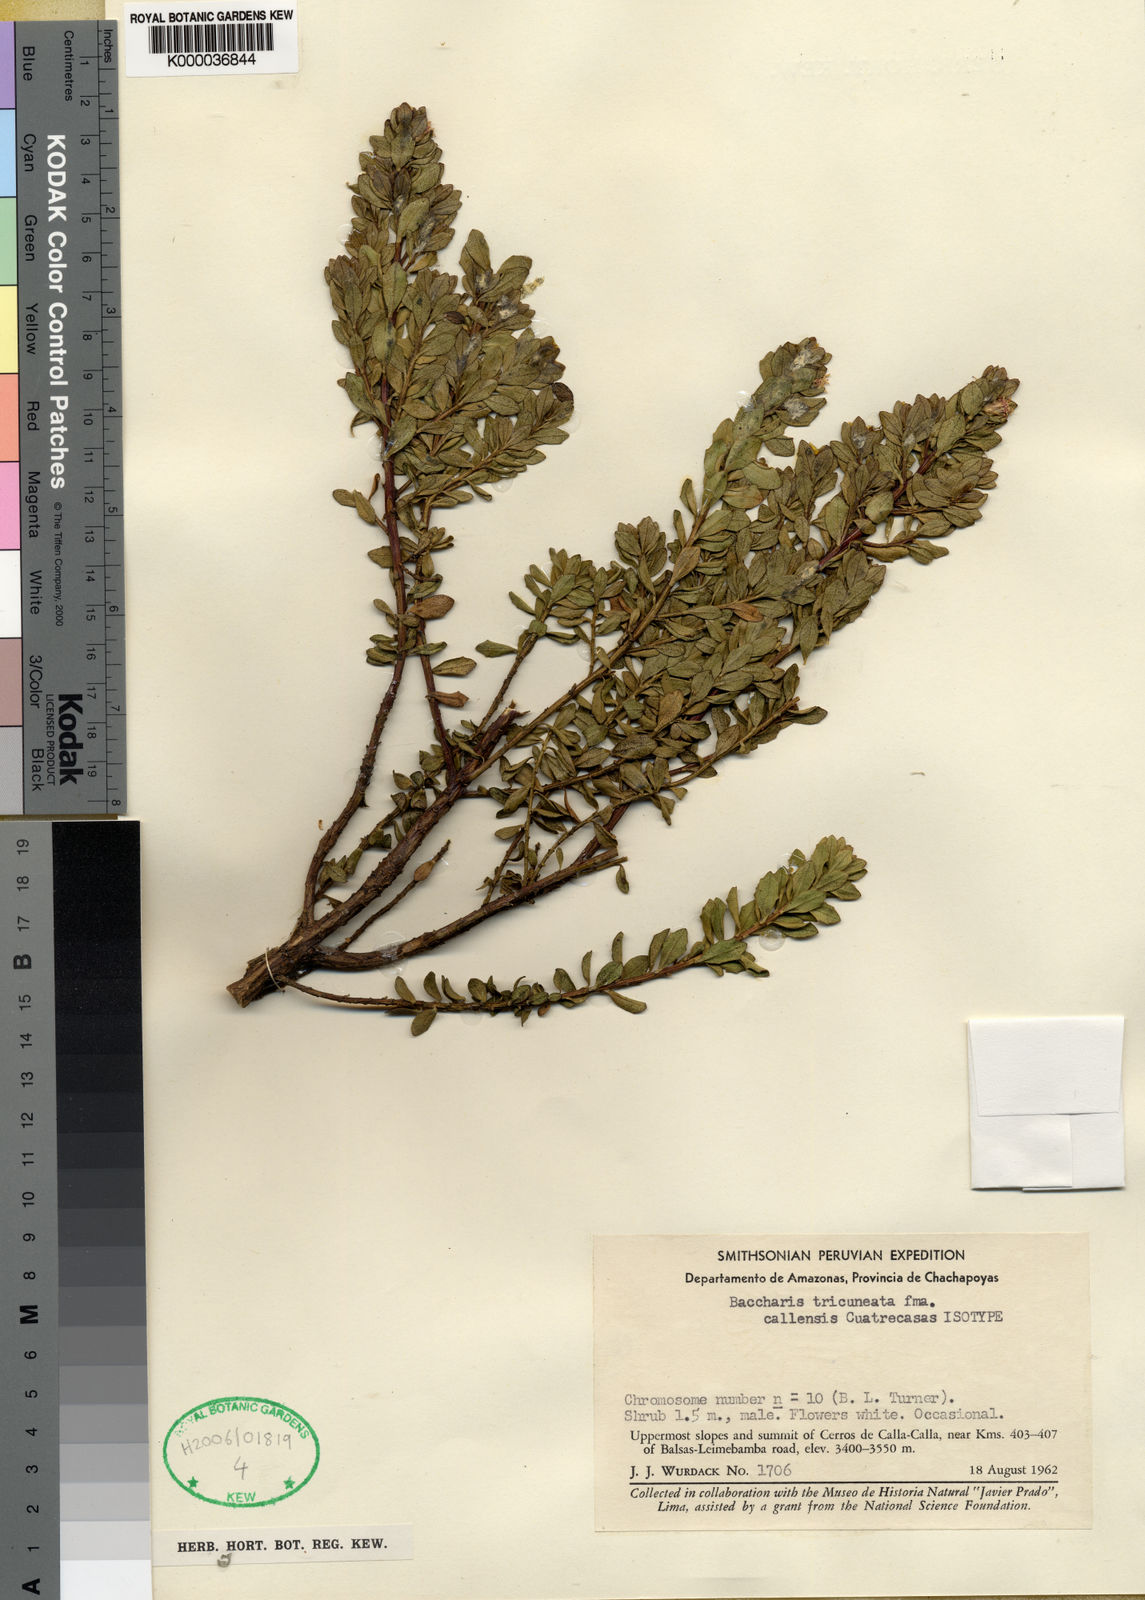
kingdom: Plantae
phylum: Tracheophyta
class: Magnoliopsida
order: Asterales
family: Asteraceae
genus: Baccharis
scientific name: Baccharis tricuneata
